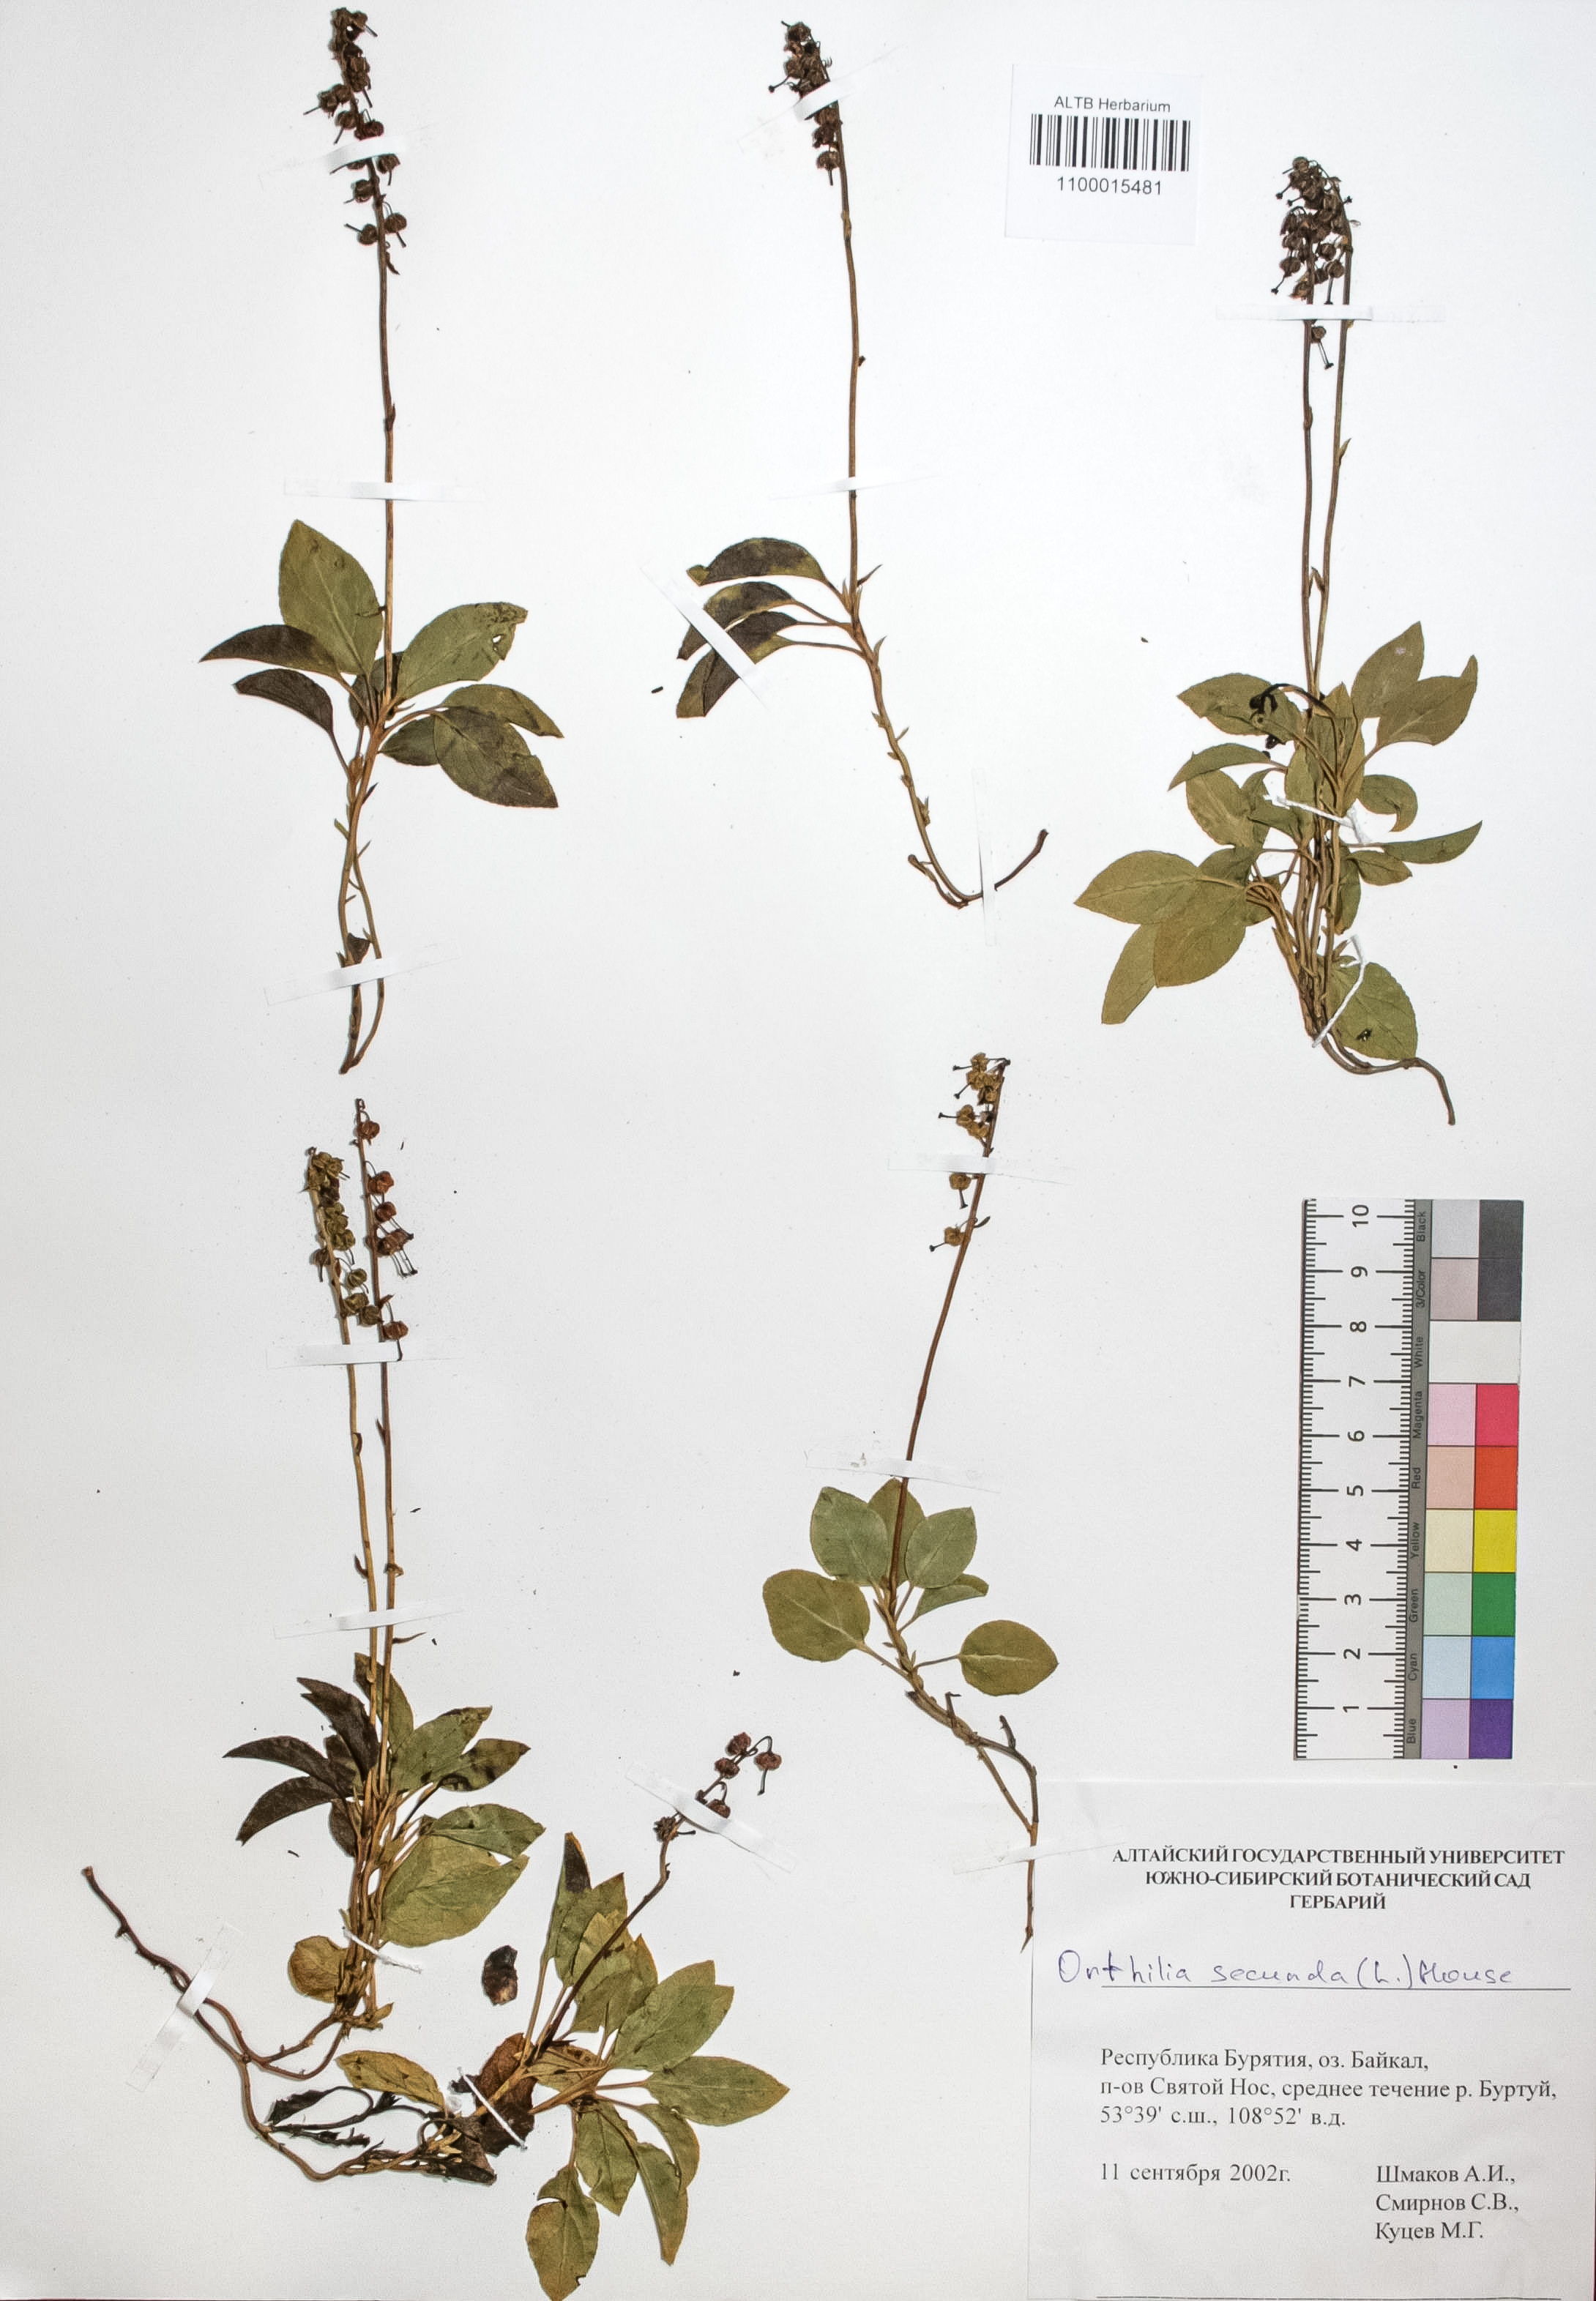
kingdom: Plantae
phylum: Tracheophyta
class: Magnoliopsida
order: Ericales
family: Ericaceae
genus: Orthilia
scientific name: Orthilia secunda
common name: One-sided orthilia
